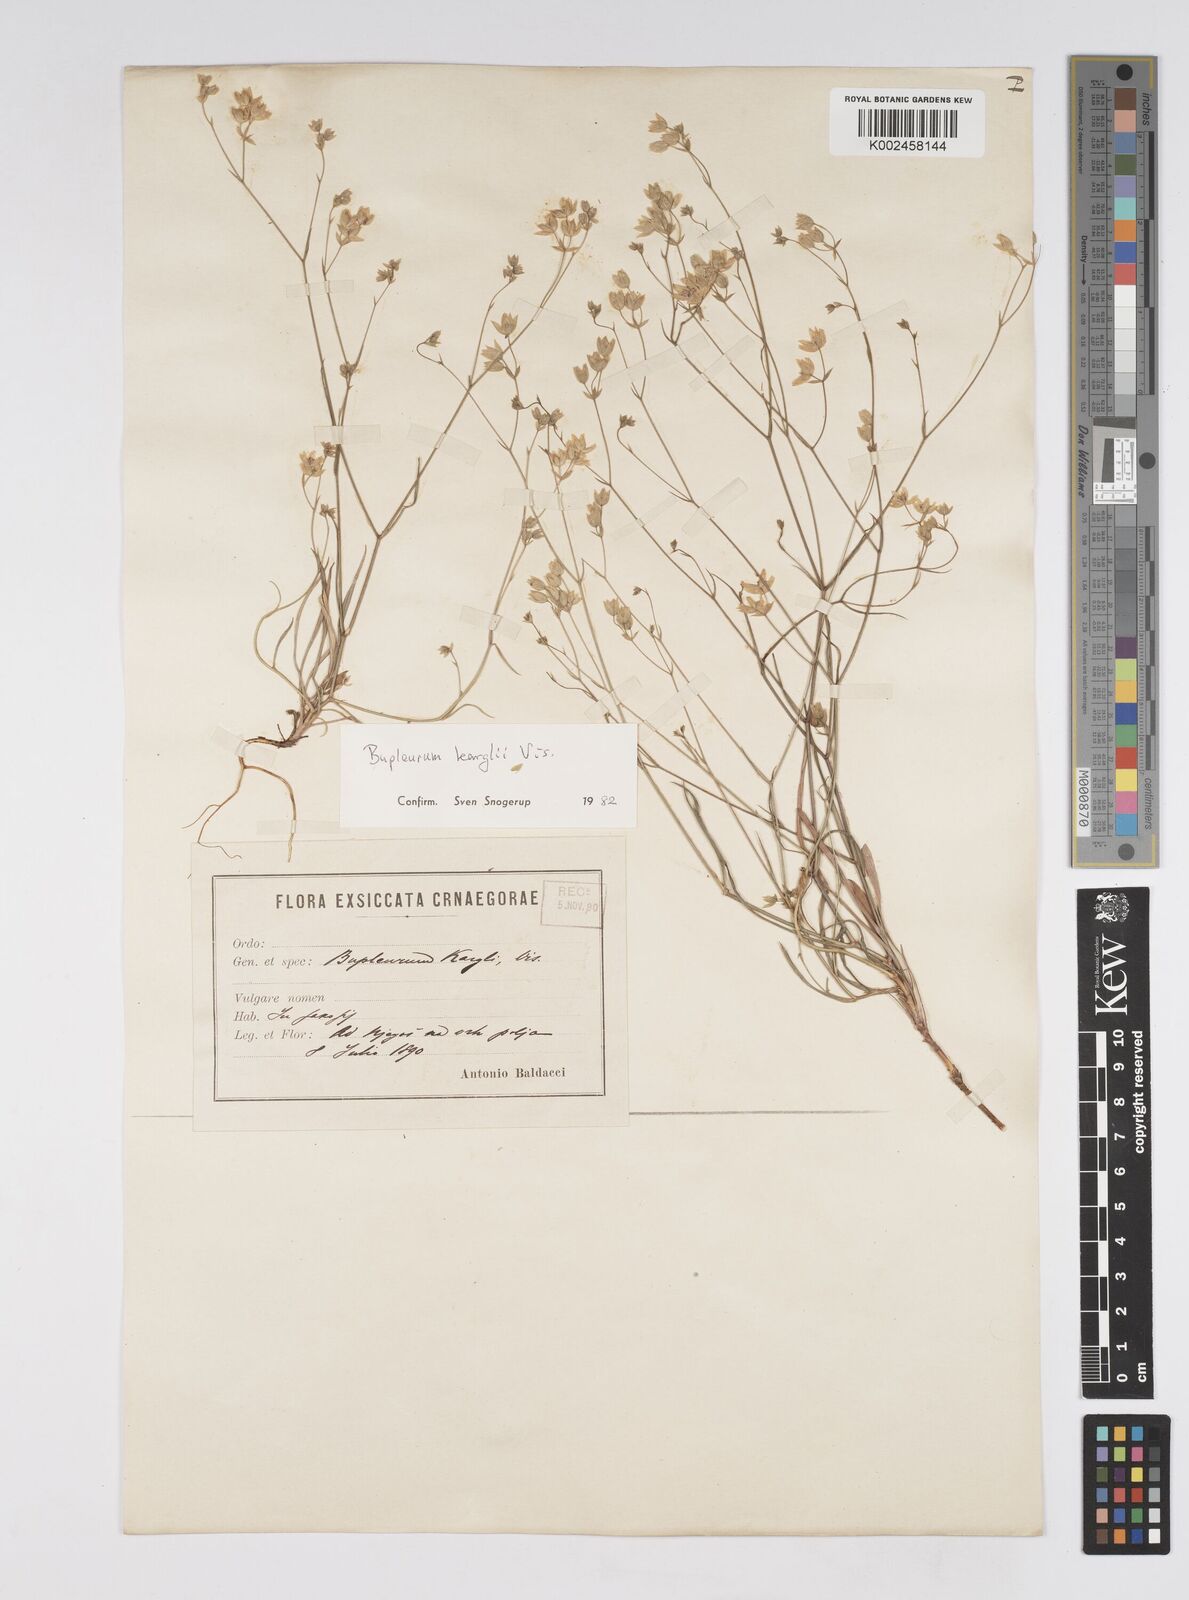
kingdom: Plantae
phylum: Tracheophyta
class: Magnoliopsida
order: Apiales
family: Apiaceae
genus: Bupleurum
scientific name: Bupleurum karglii
